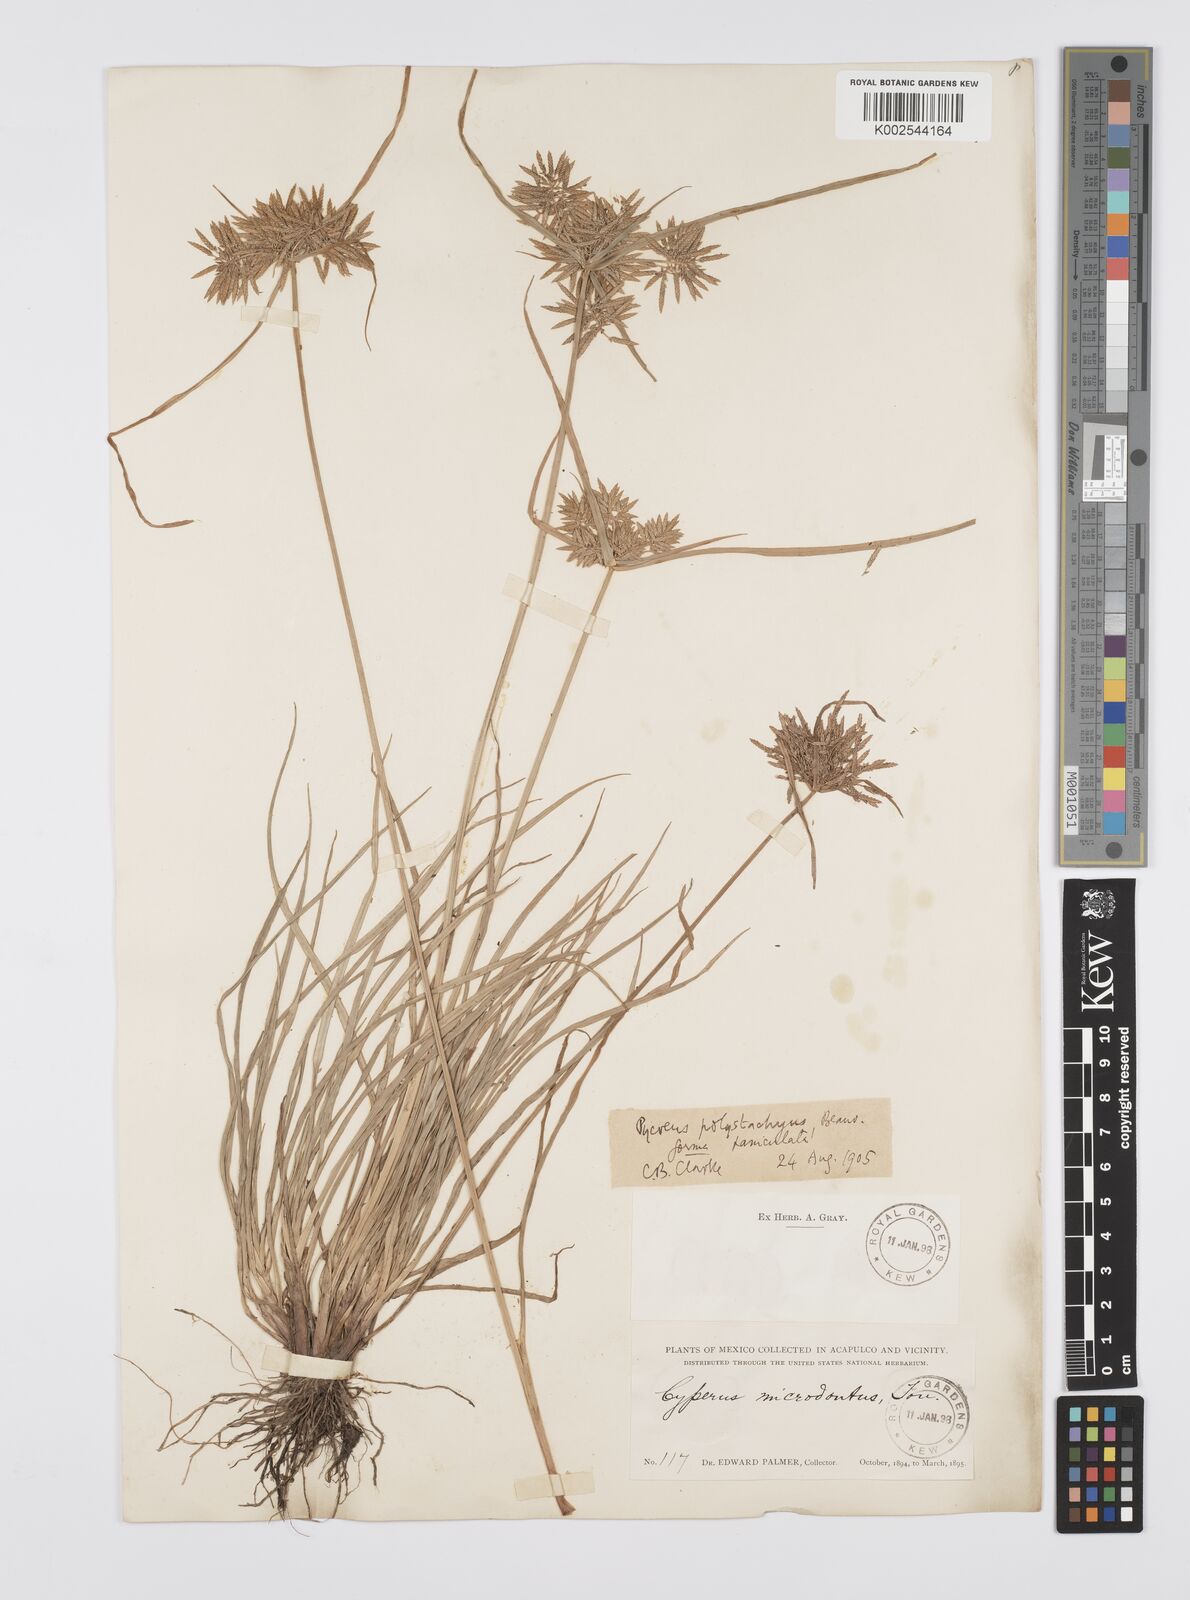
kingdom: Plantae
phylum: Tracheophyta
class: Liliopsida
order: Poales
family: Cyperaceae
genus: Cyperus
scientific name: Cyperus polystachyos
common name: Bunchy flat sedge
